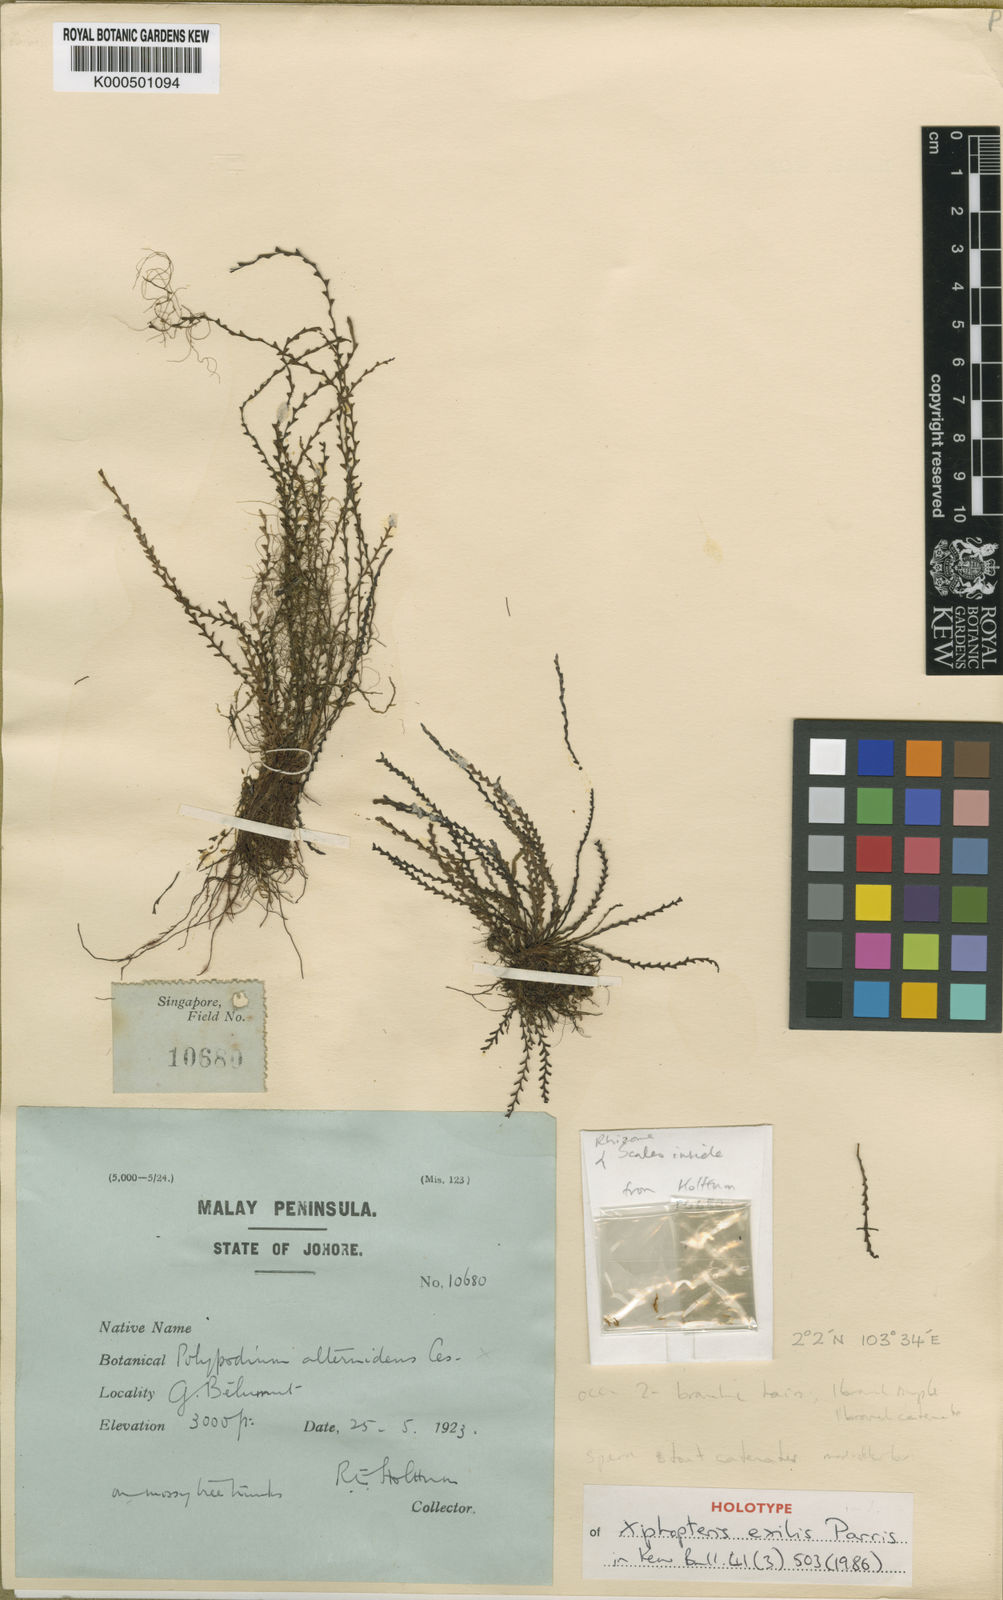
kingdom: Plantae
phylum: Tracheophyta
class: Polypodiopsida
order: Polypodiales
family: Polypodiaceae
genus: Xiphopterella
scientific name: Xiphopterella govidjoaensis
